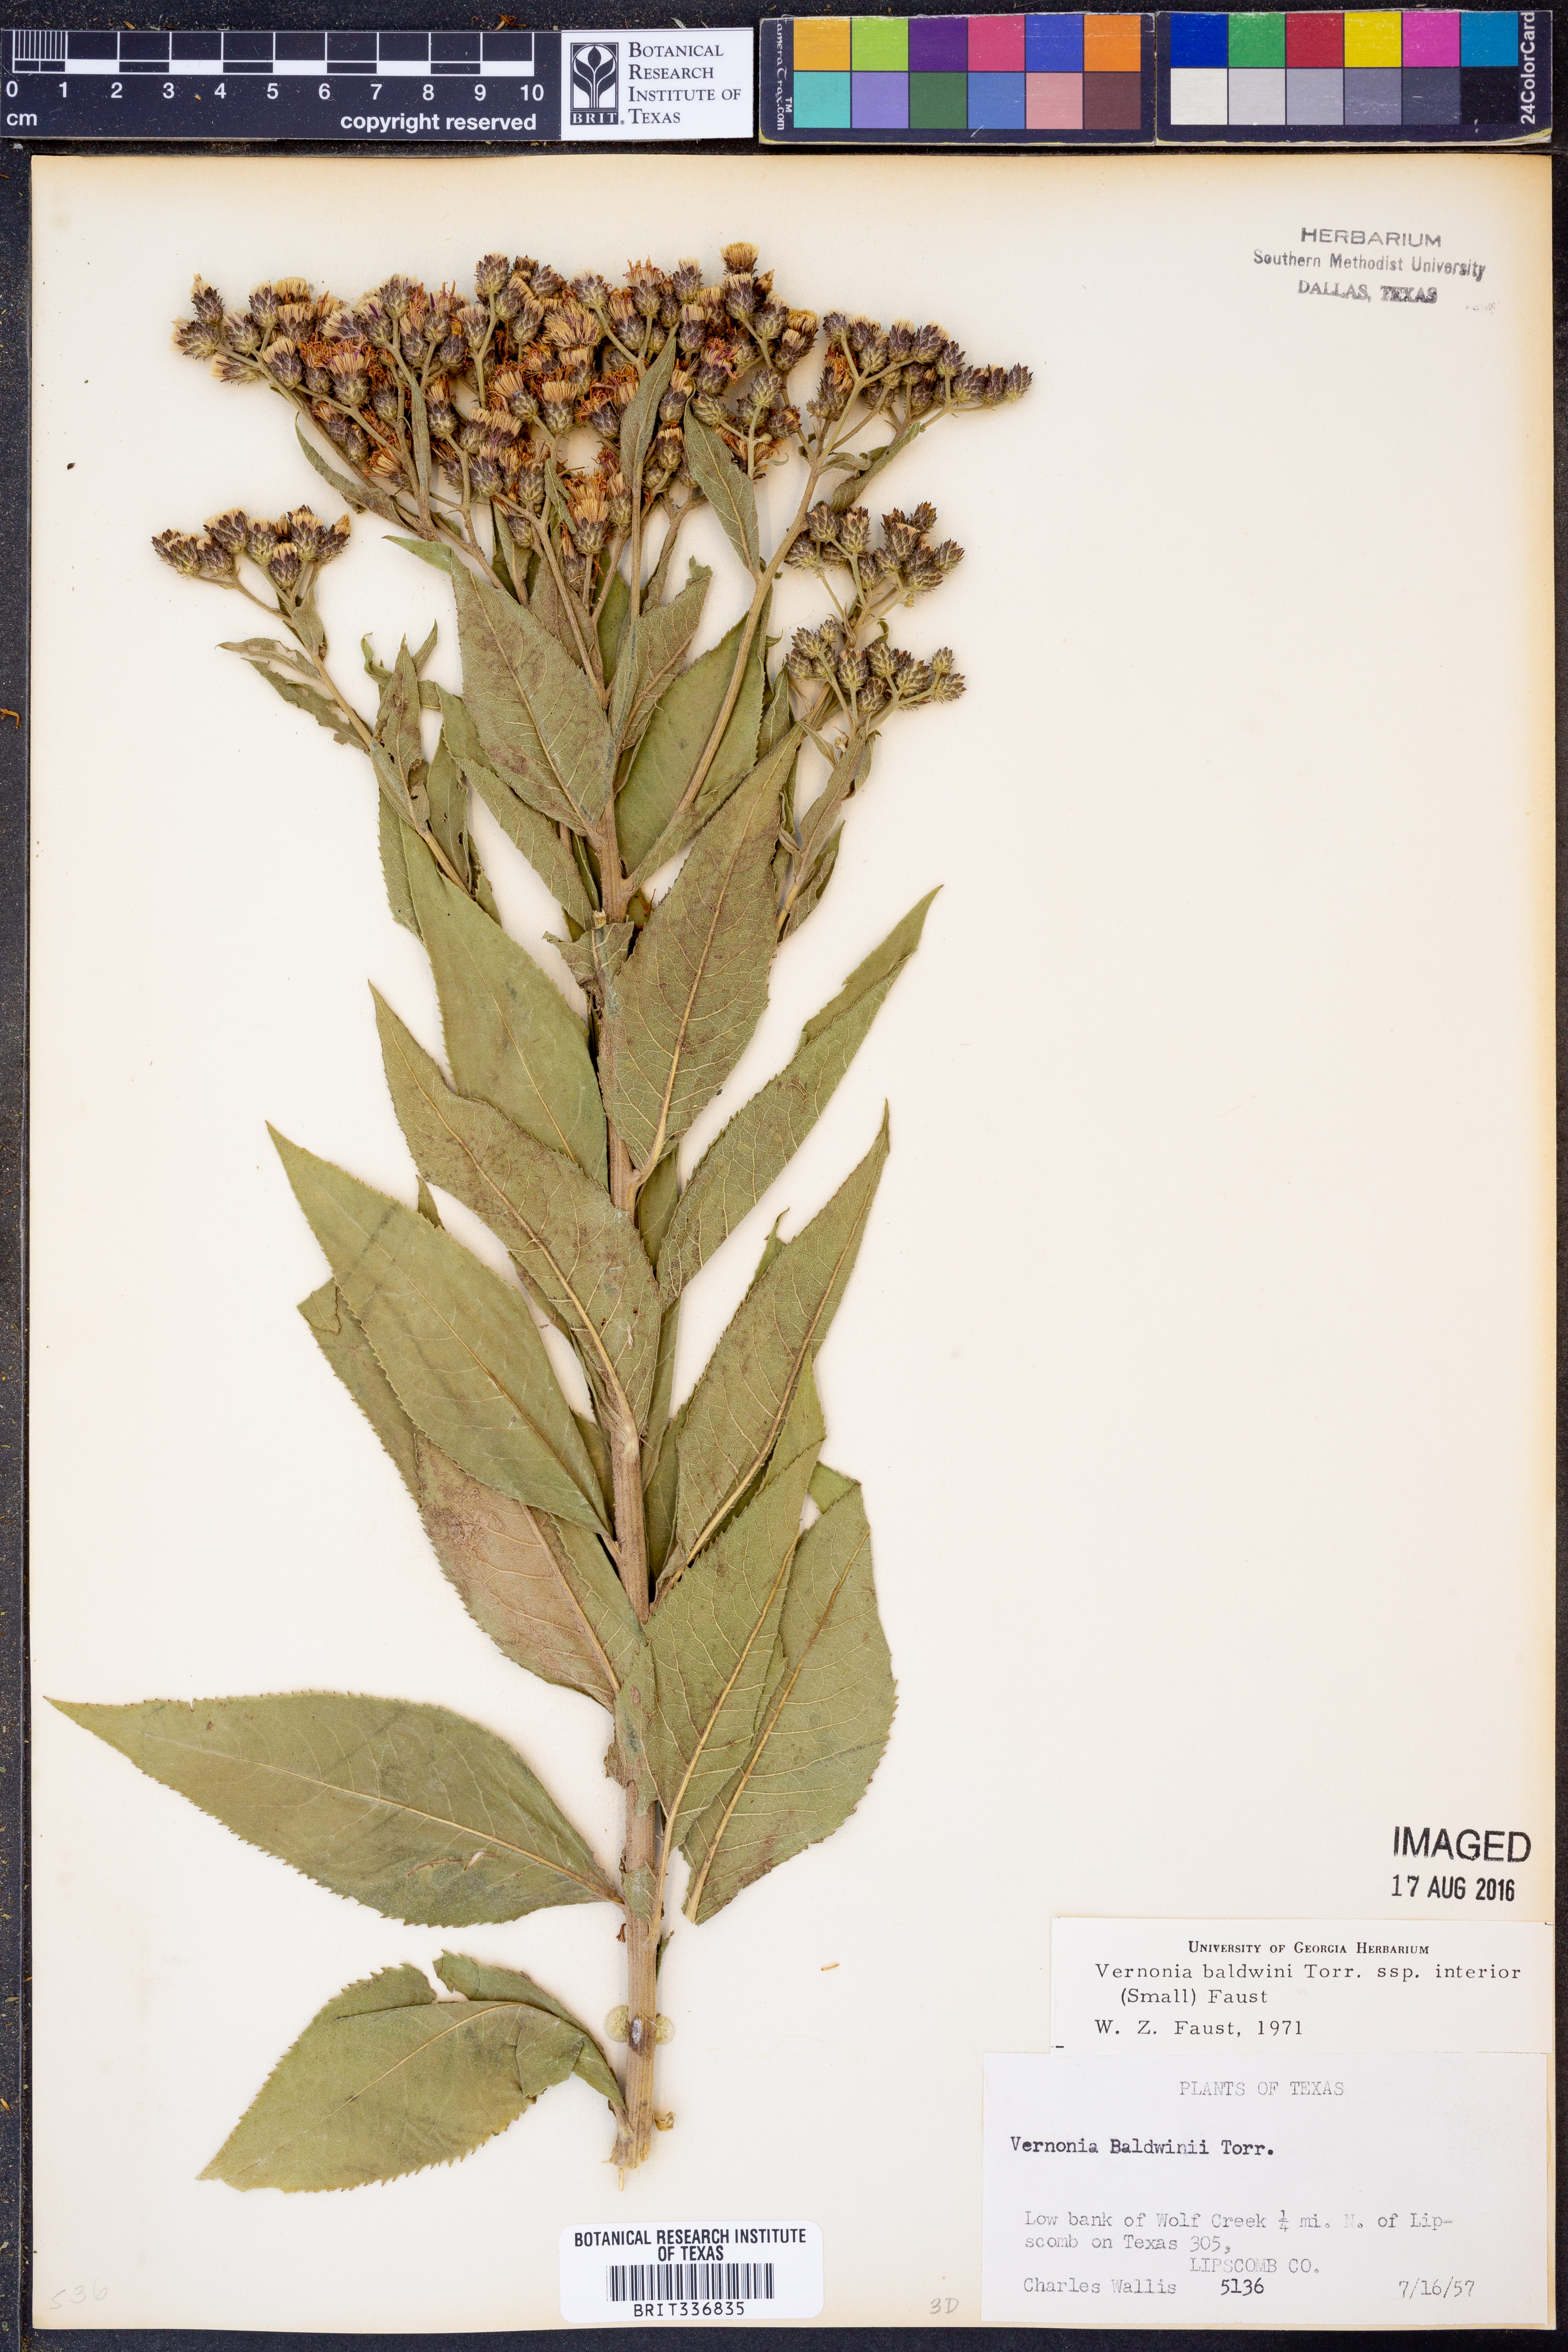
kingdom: Plantae
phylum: Tracheophyta
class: Magnoliopsida
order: Asterales
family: Asteraceae
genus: Vernonia
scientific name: Vernonia baldwinii
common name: Western ironweed
